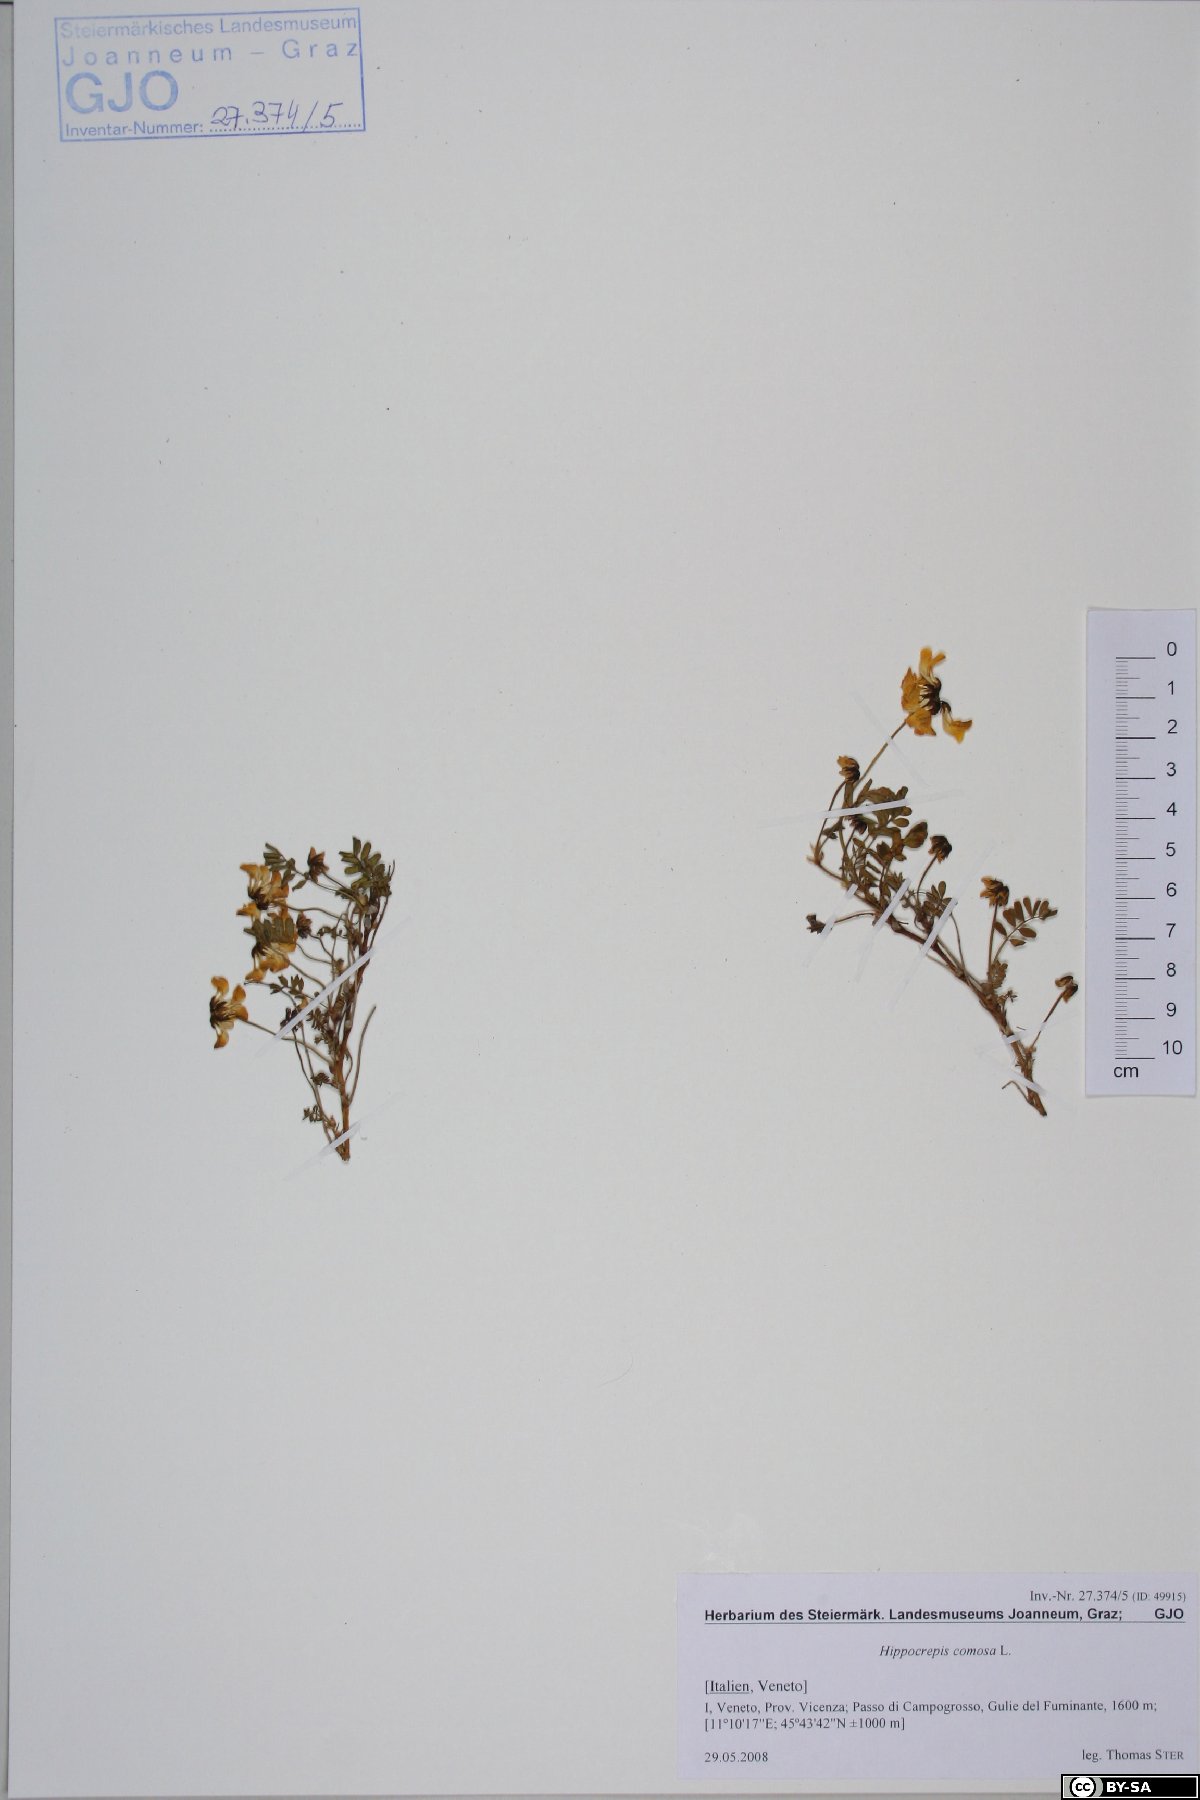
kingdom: Plantae
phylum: Tracheophyta
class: Magnoliopsida
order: Fabales
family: Fabaceae
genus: Hippocrepis
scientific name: Hippocrepis comosa
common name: Horseshoe vetch
